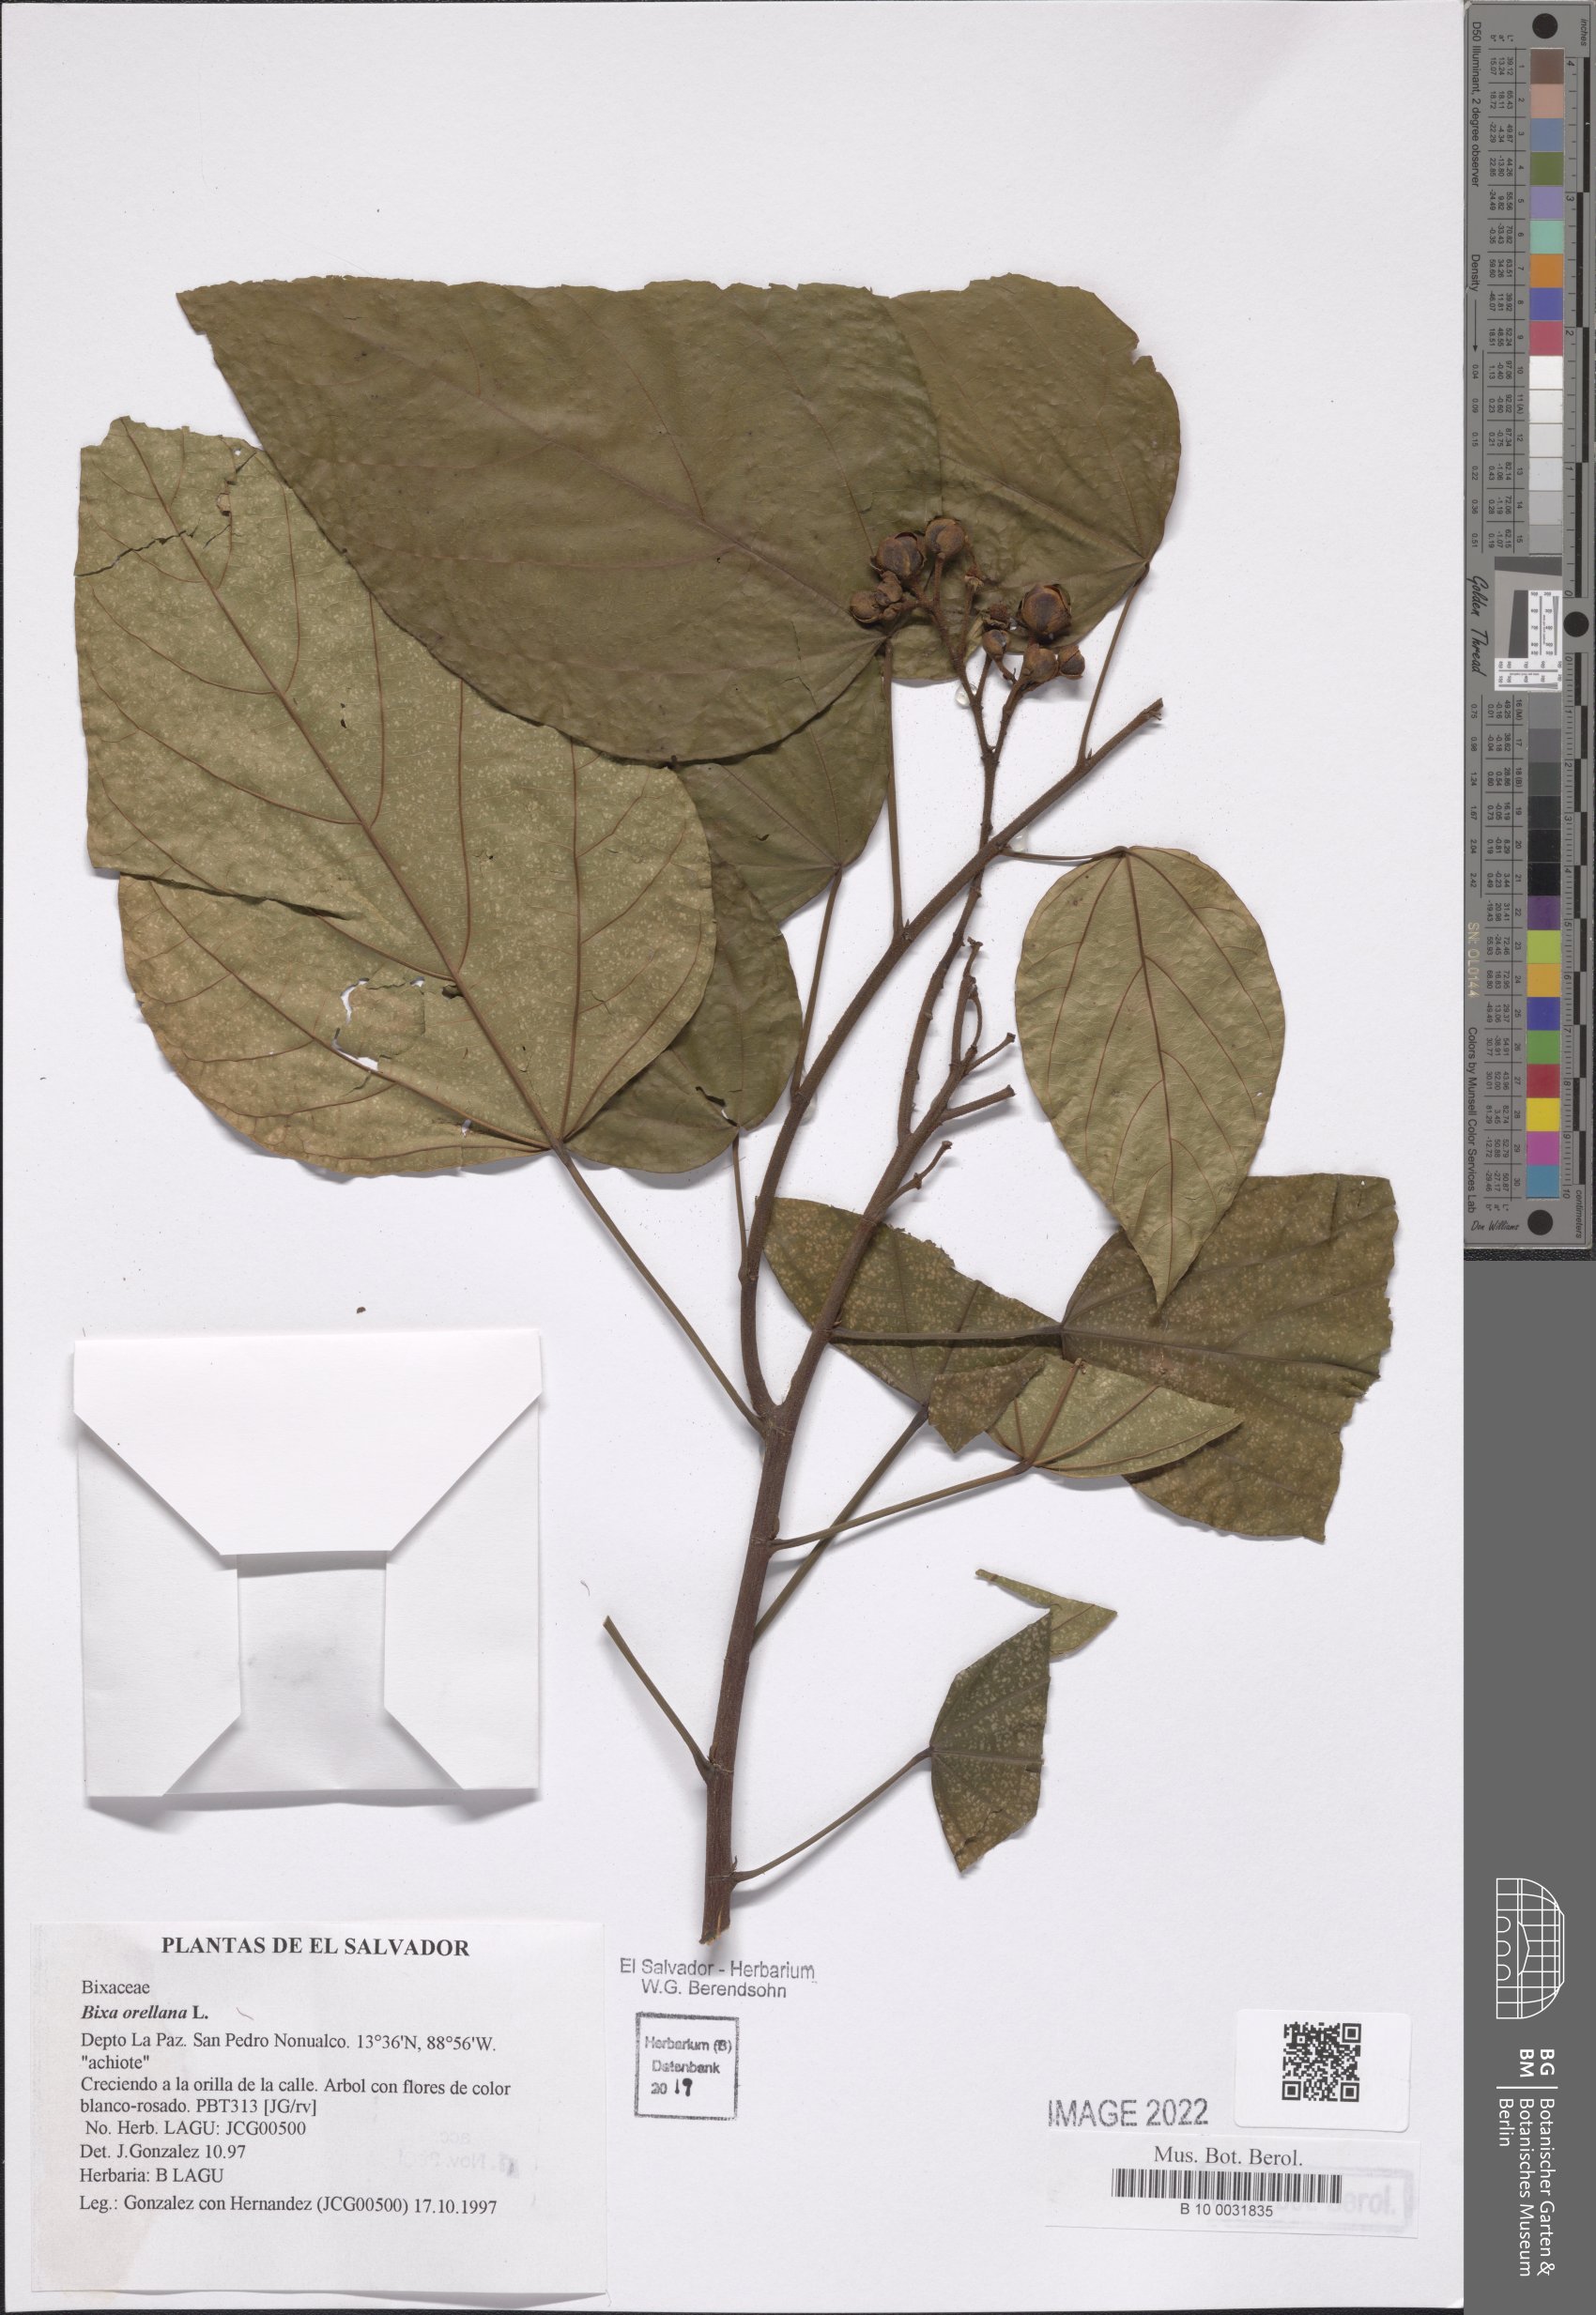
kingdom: Plantae
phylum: Tracheophyta
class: Magnoliopsida
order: Malvales
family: Bixaceae
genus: Bixa
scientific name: Bixa orellana
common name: Lipsticktree
